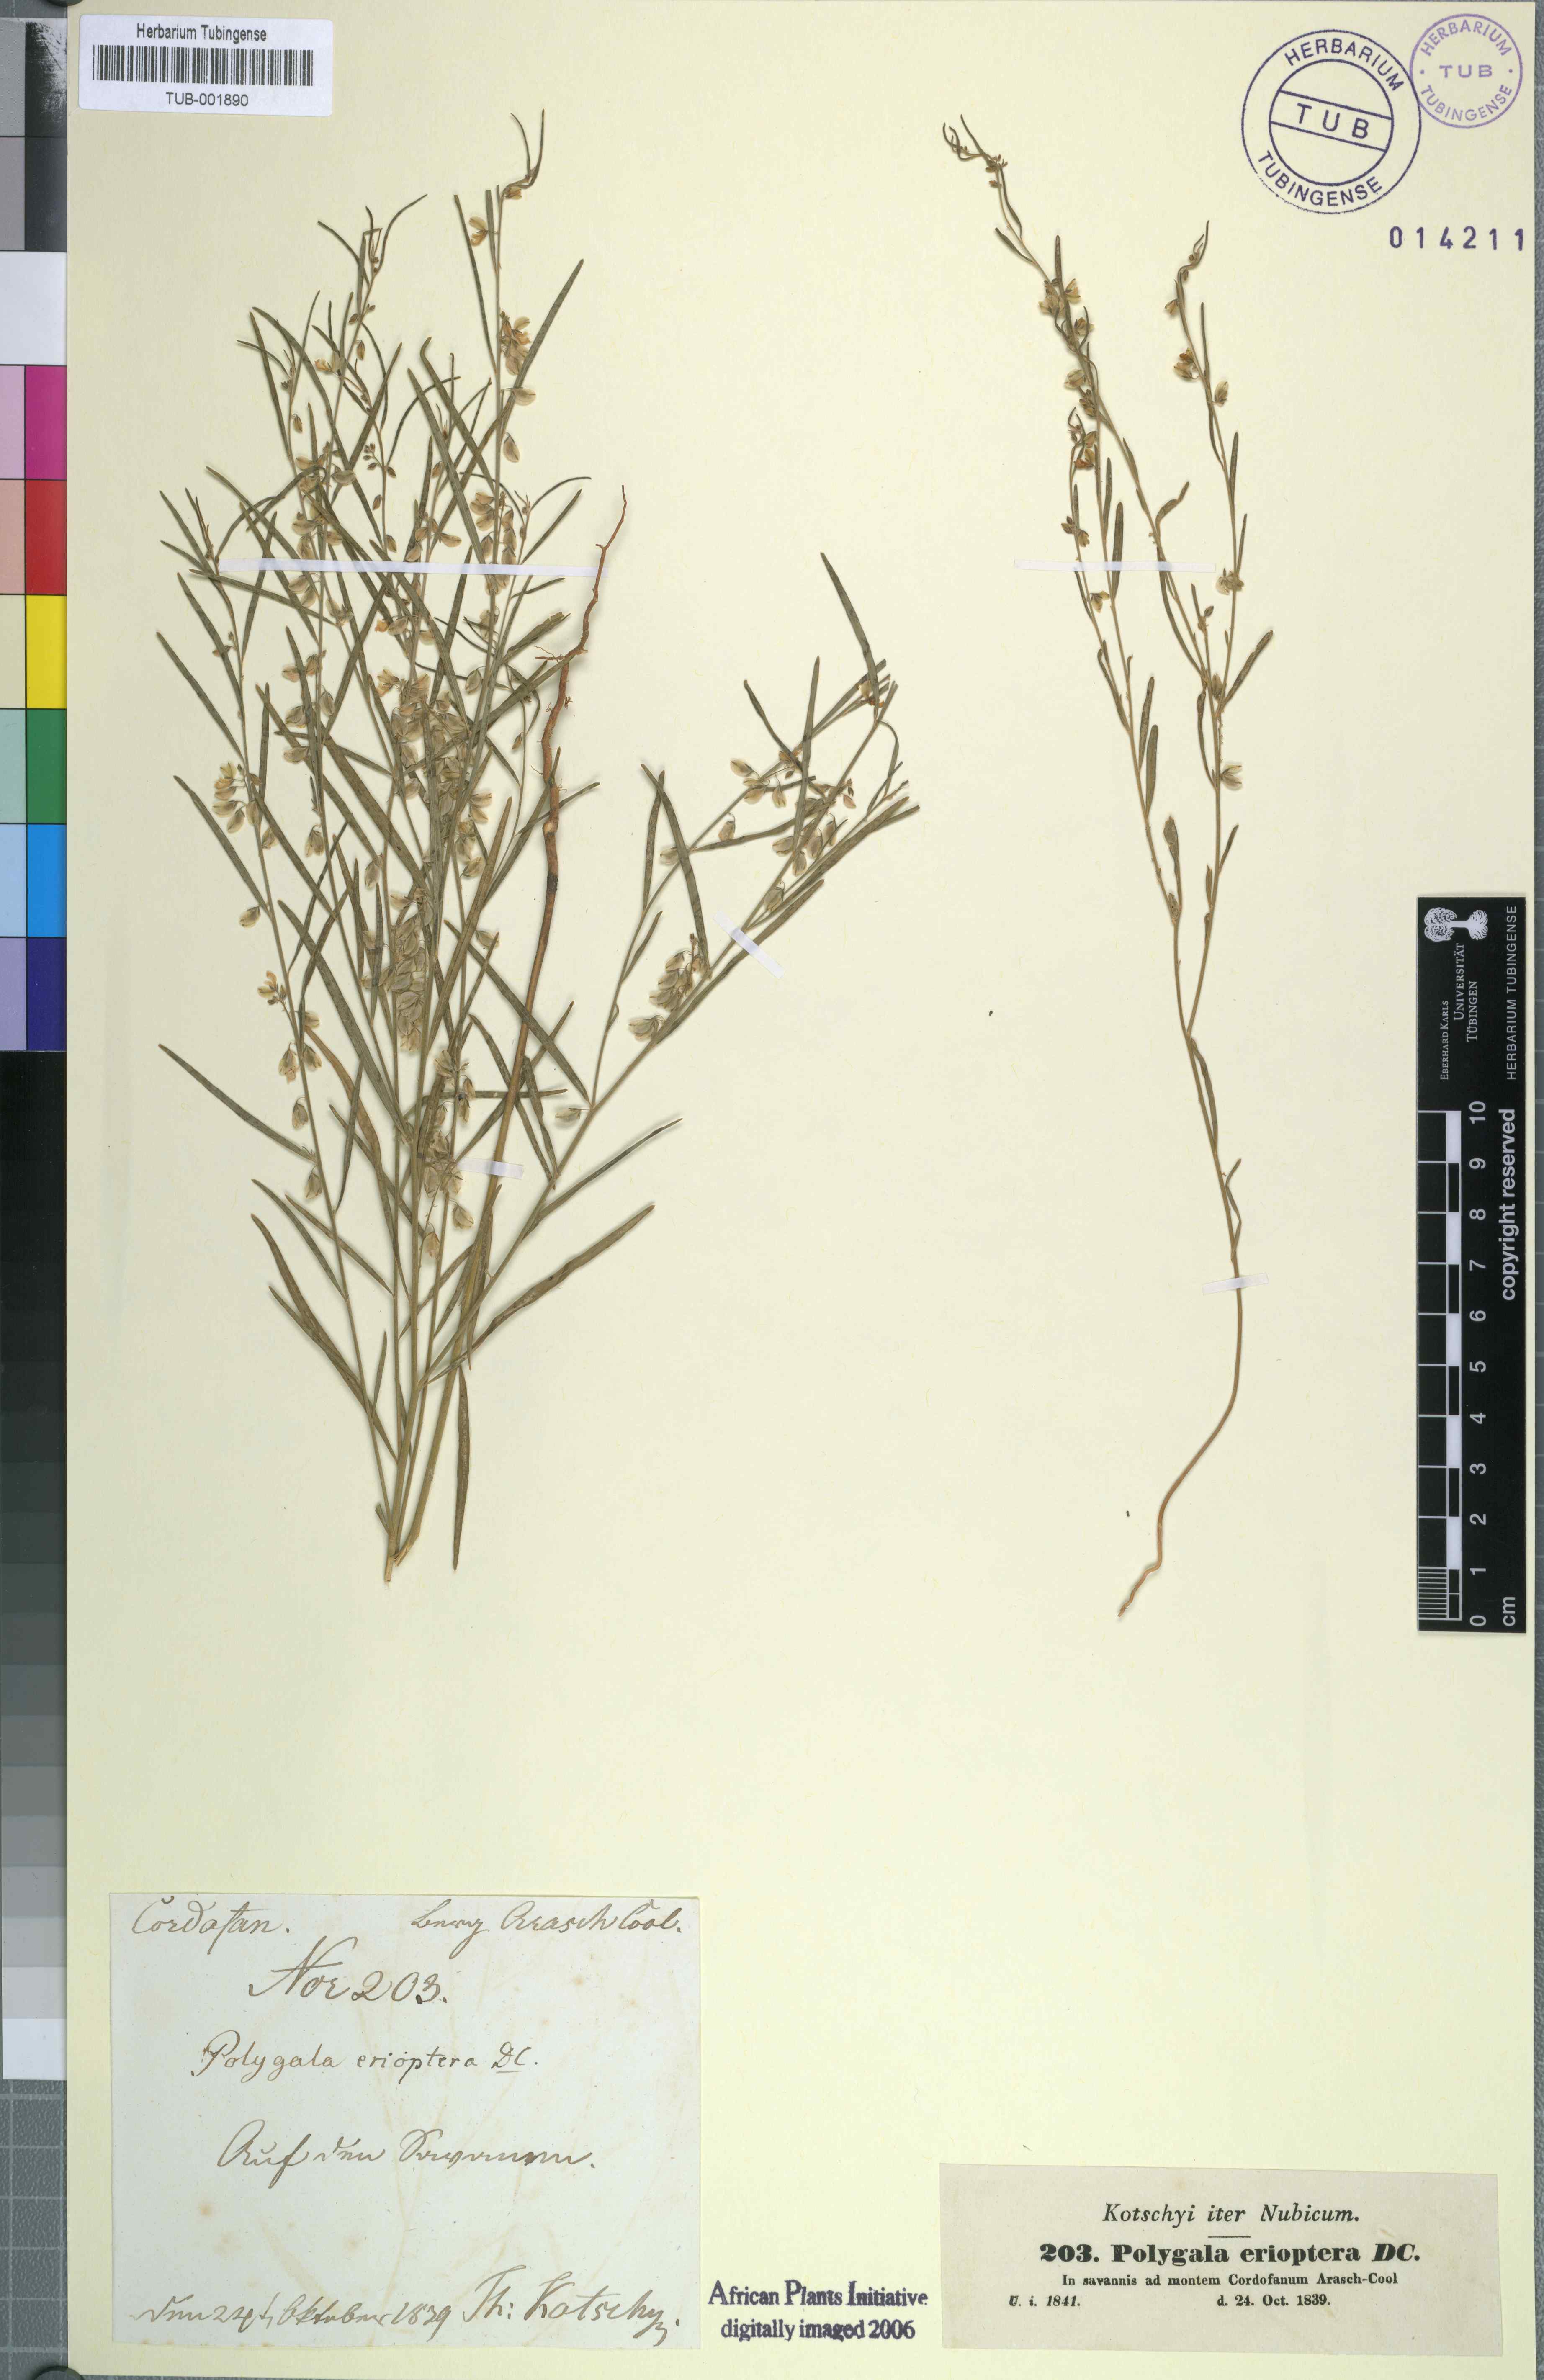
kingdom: Plantae
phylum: Tracheophyta
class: Magnoliopsida
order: Fabales
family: Polygalaceae
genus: Polygala
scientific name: Polygala erioptera
